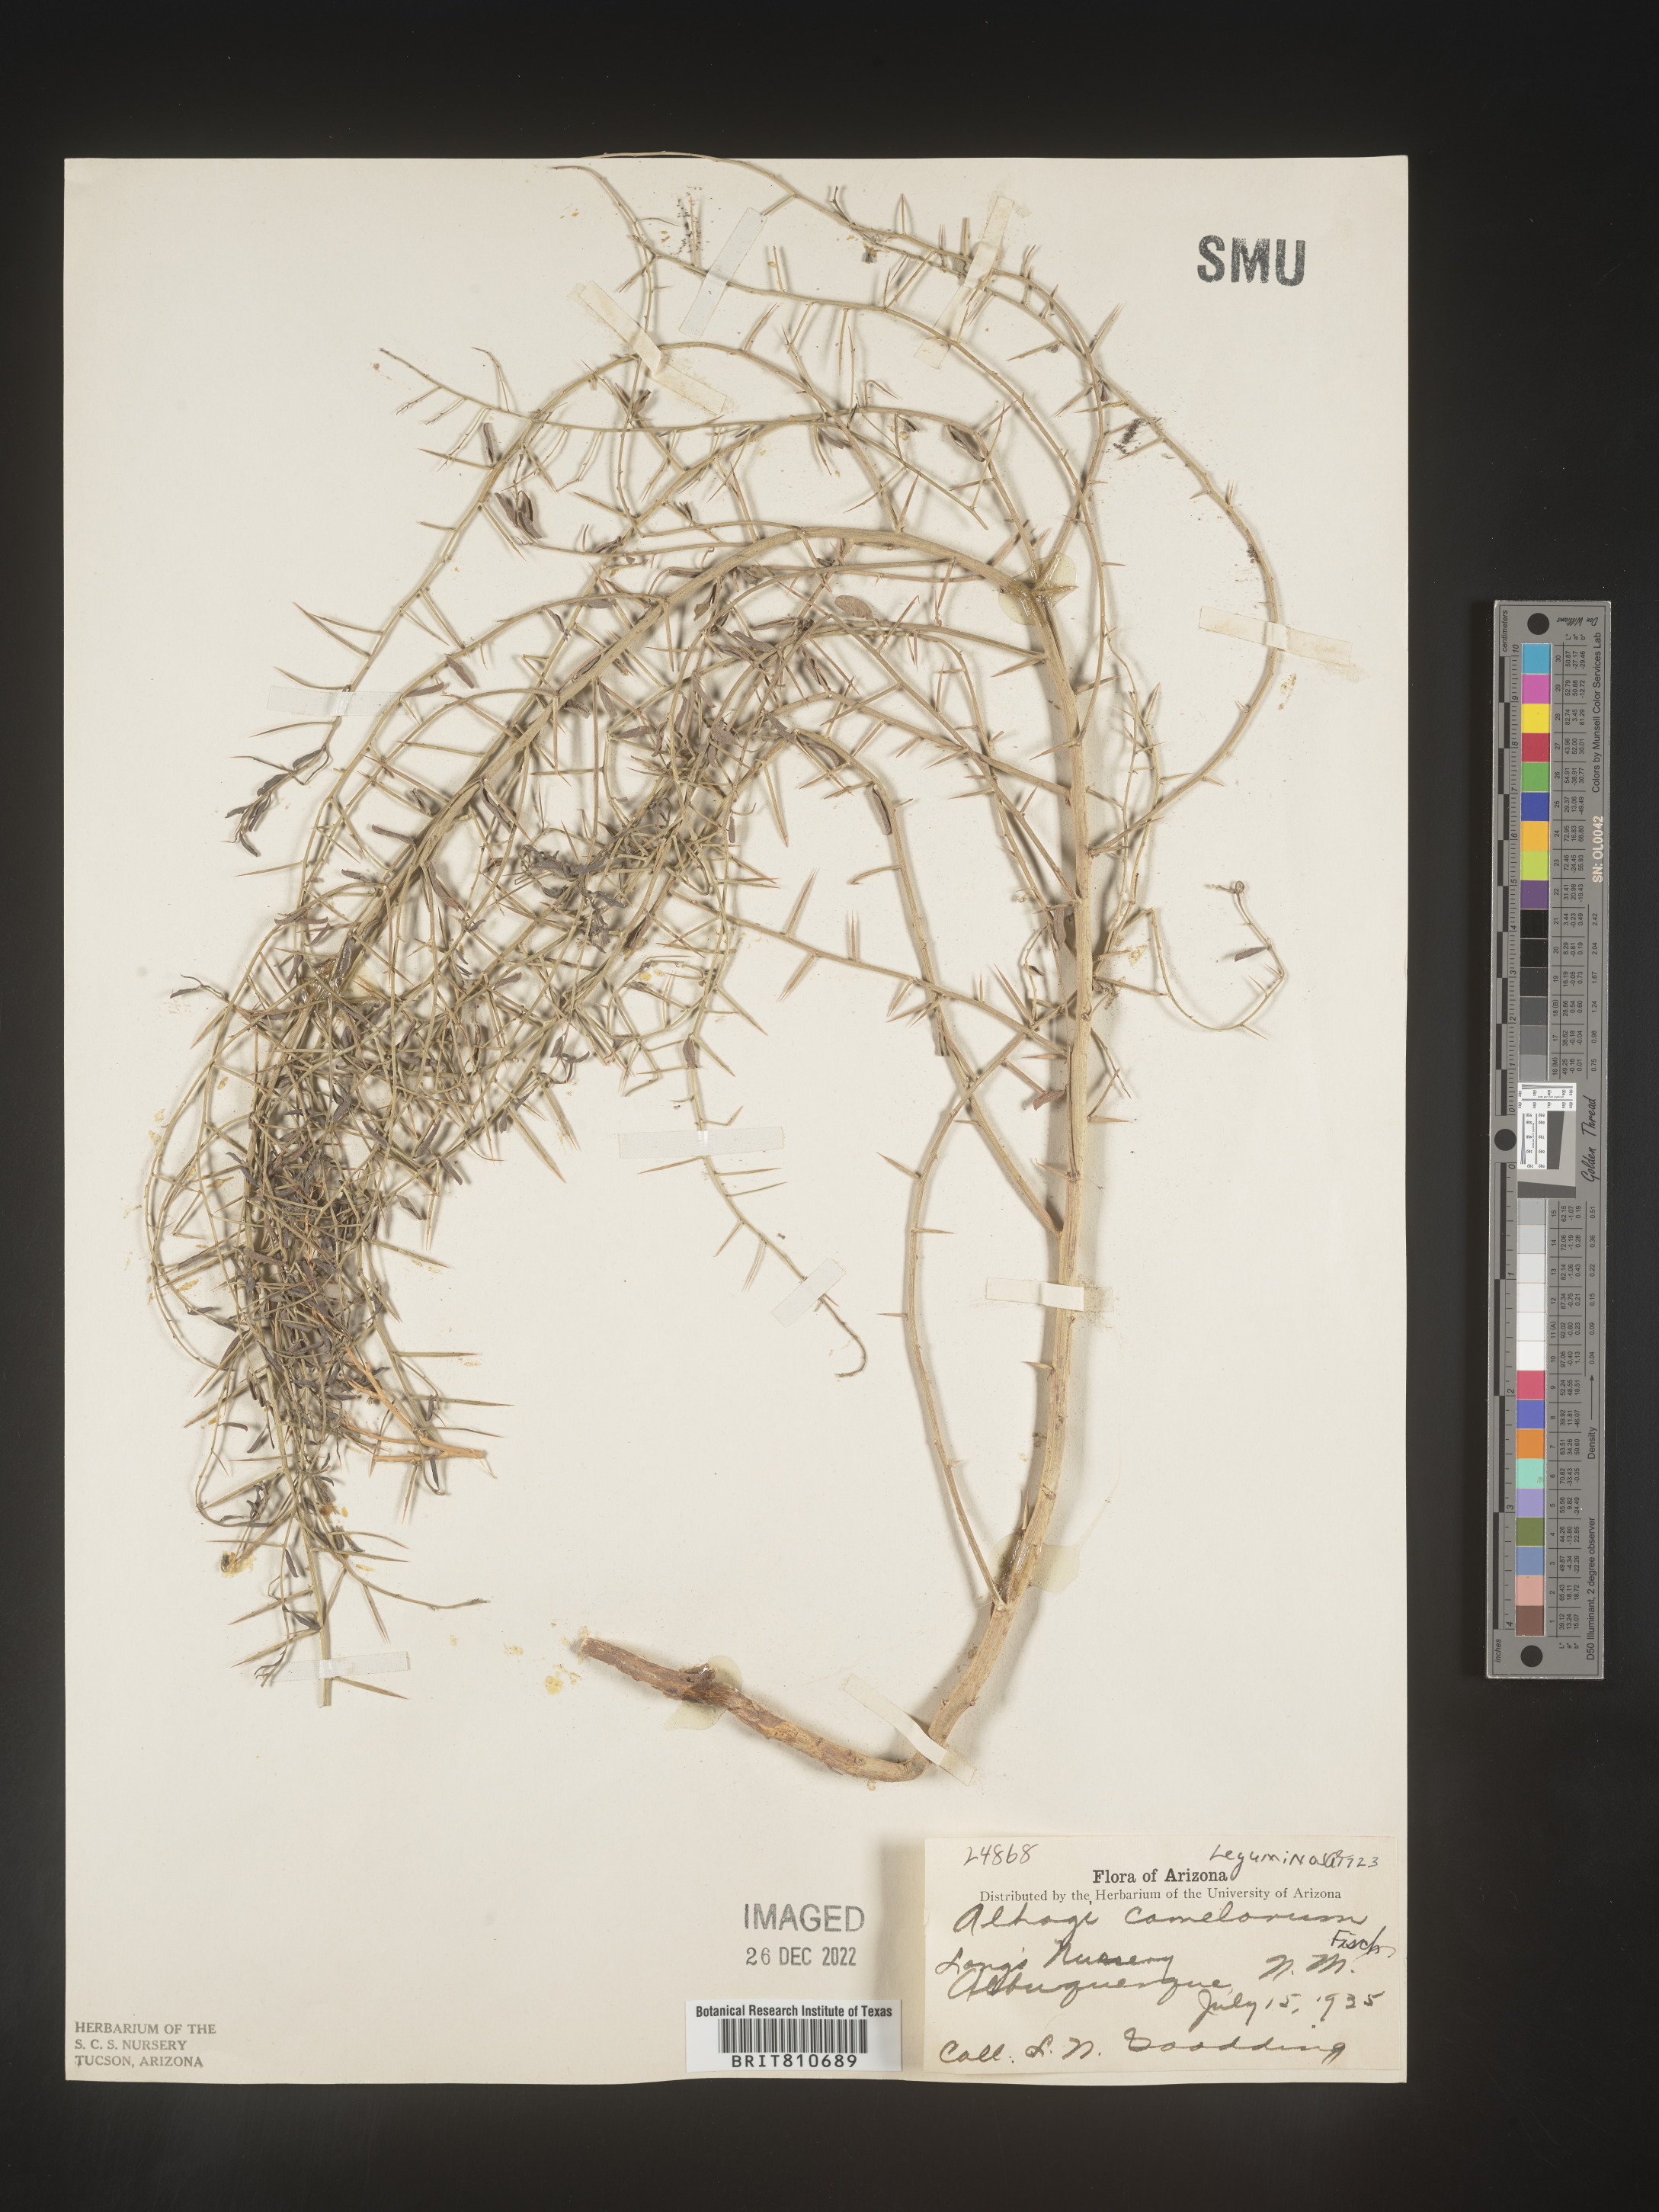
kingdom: Plantae
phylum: Tracheophyta
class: Magnoliopsida
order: Fabales
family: Fabaceae
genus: Alhagi
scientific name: Alhagi
